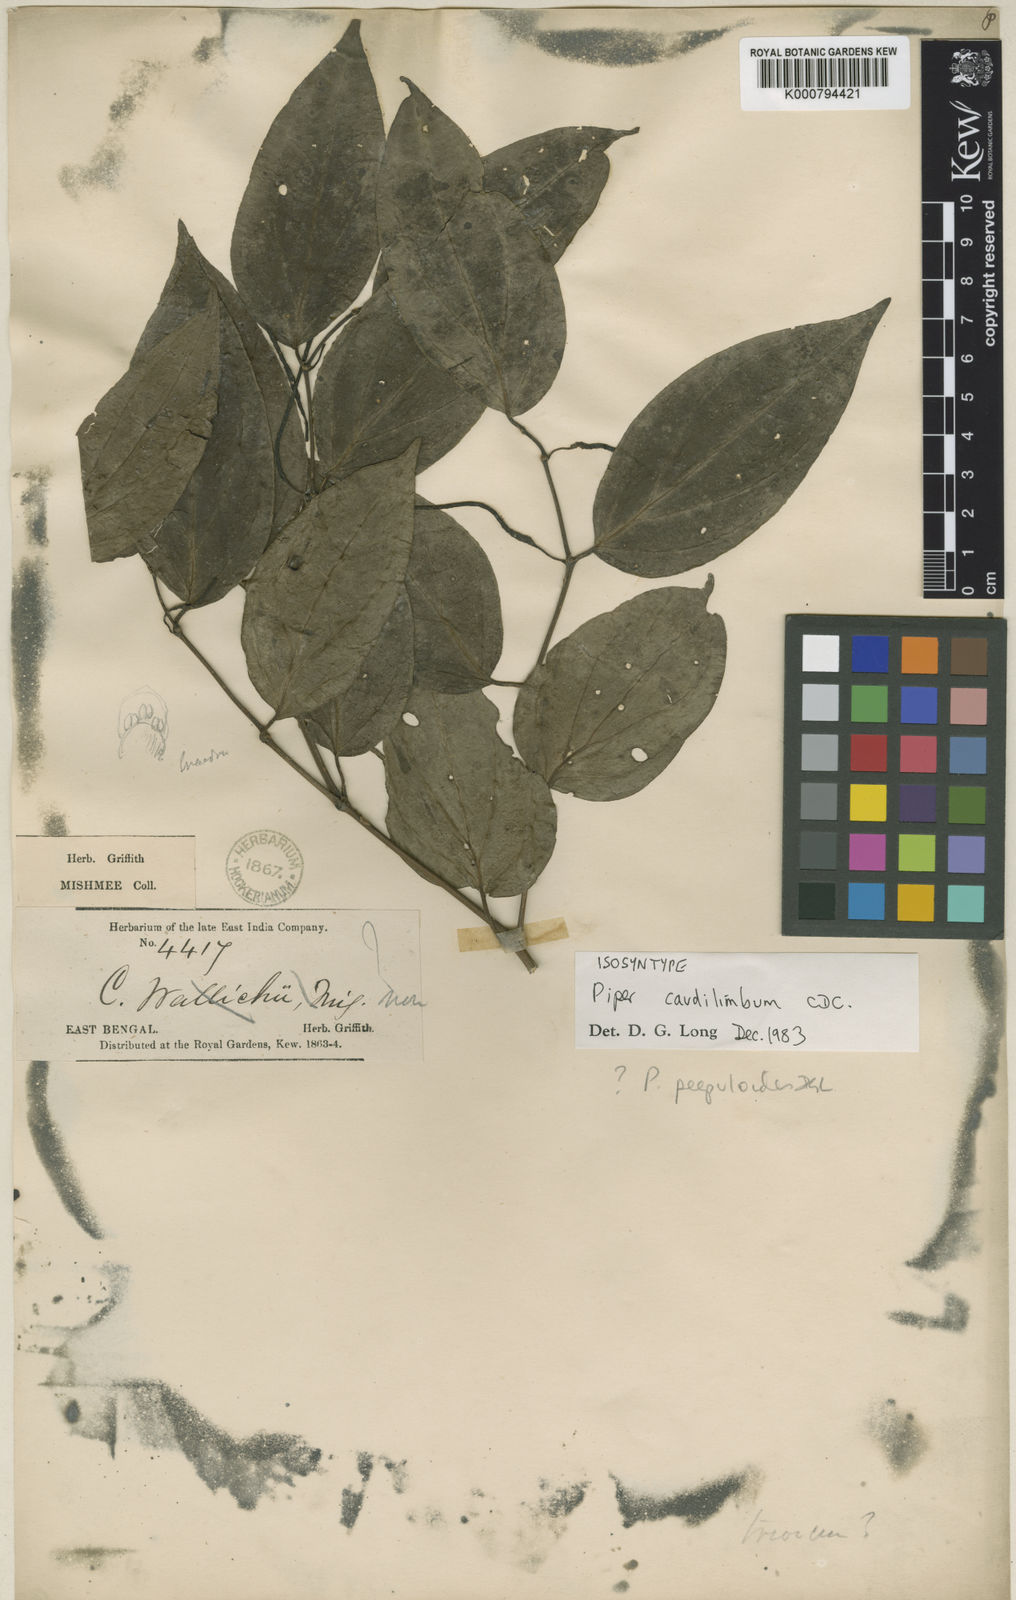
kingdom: Plantae
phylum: Tracheophyta
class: Magnoliopsida
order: Piperales
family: Piperaceae
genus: Piper
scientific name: Piper wallichii
